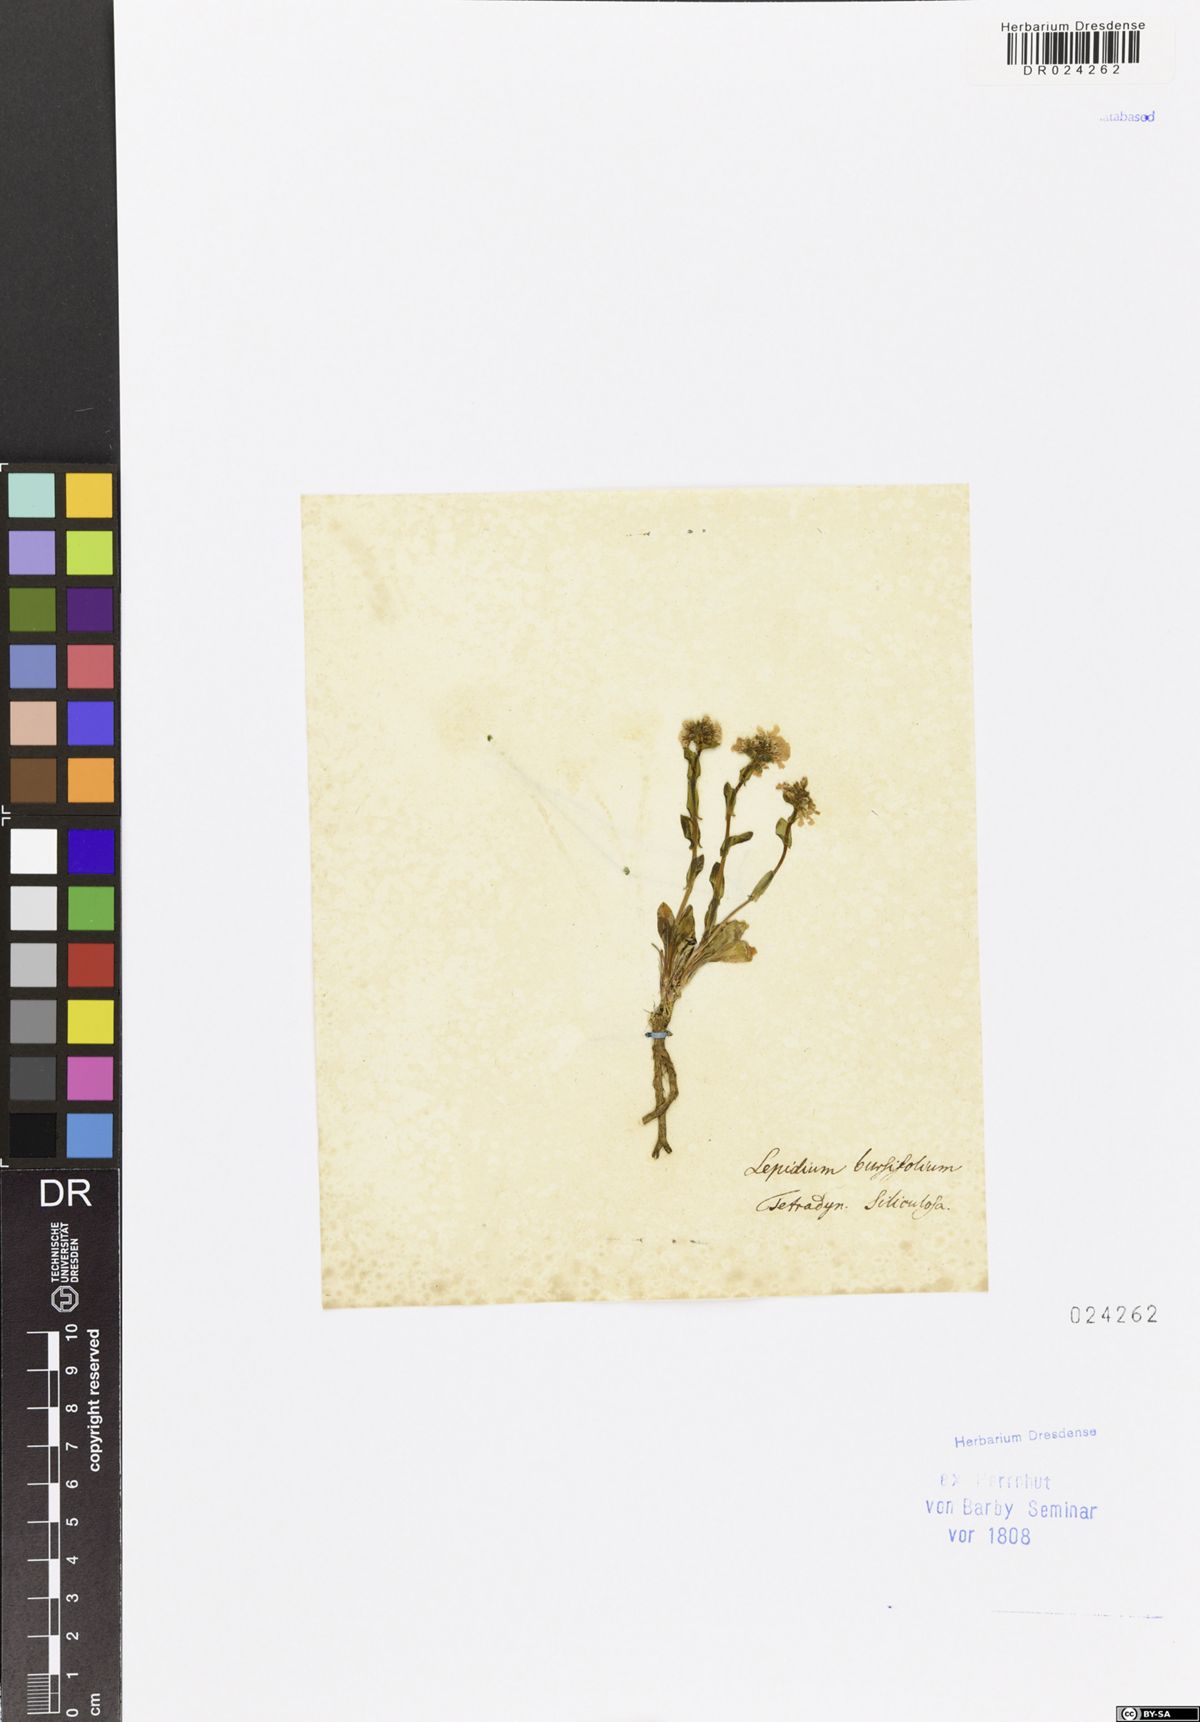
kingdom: Plantae
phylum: Tracheophyta
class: Magnoliopsida
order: Brassicales
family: Brassicaceae
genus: Sisymbrella
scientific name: Sisymbrella dentata
